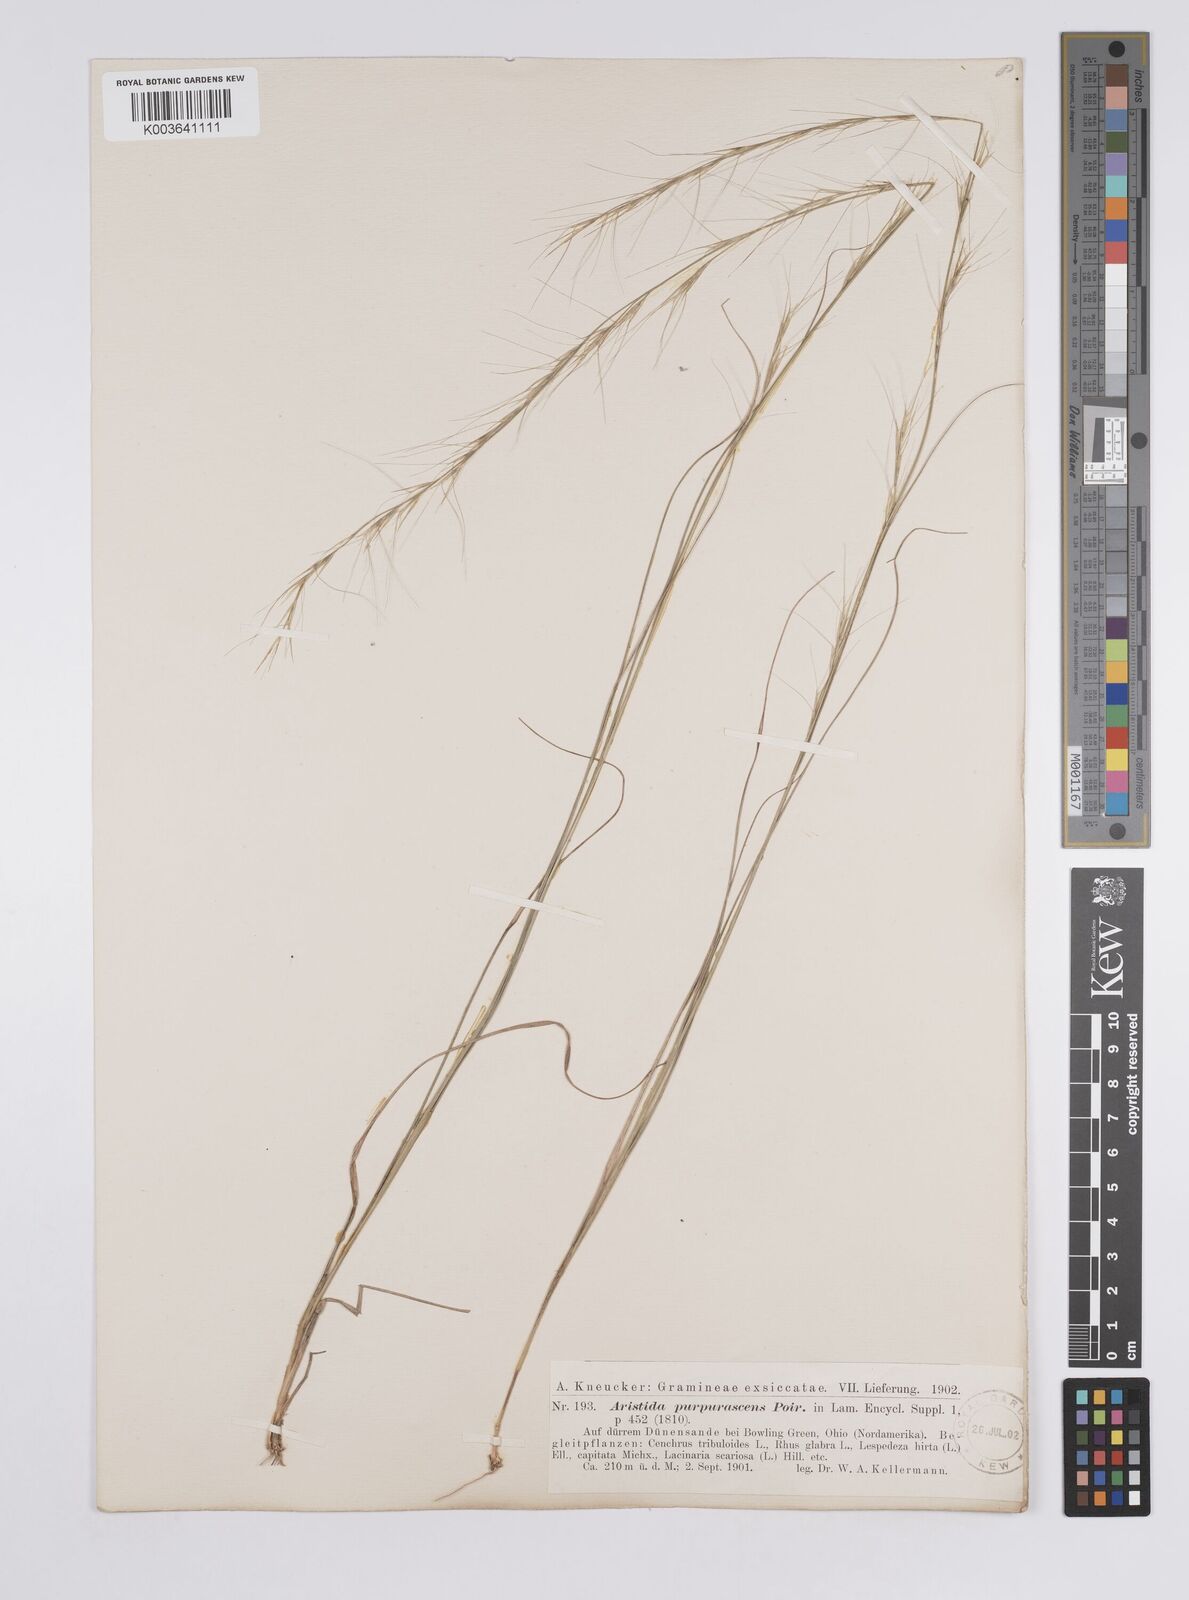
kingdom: Plantae
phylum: Tracheophyta
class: Liliopsida
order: Poales
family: Poaceae
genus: Aristida
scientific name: Aristida purpurascens
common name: Arrow-feather
